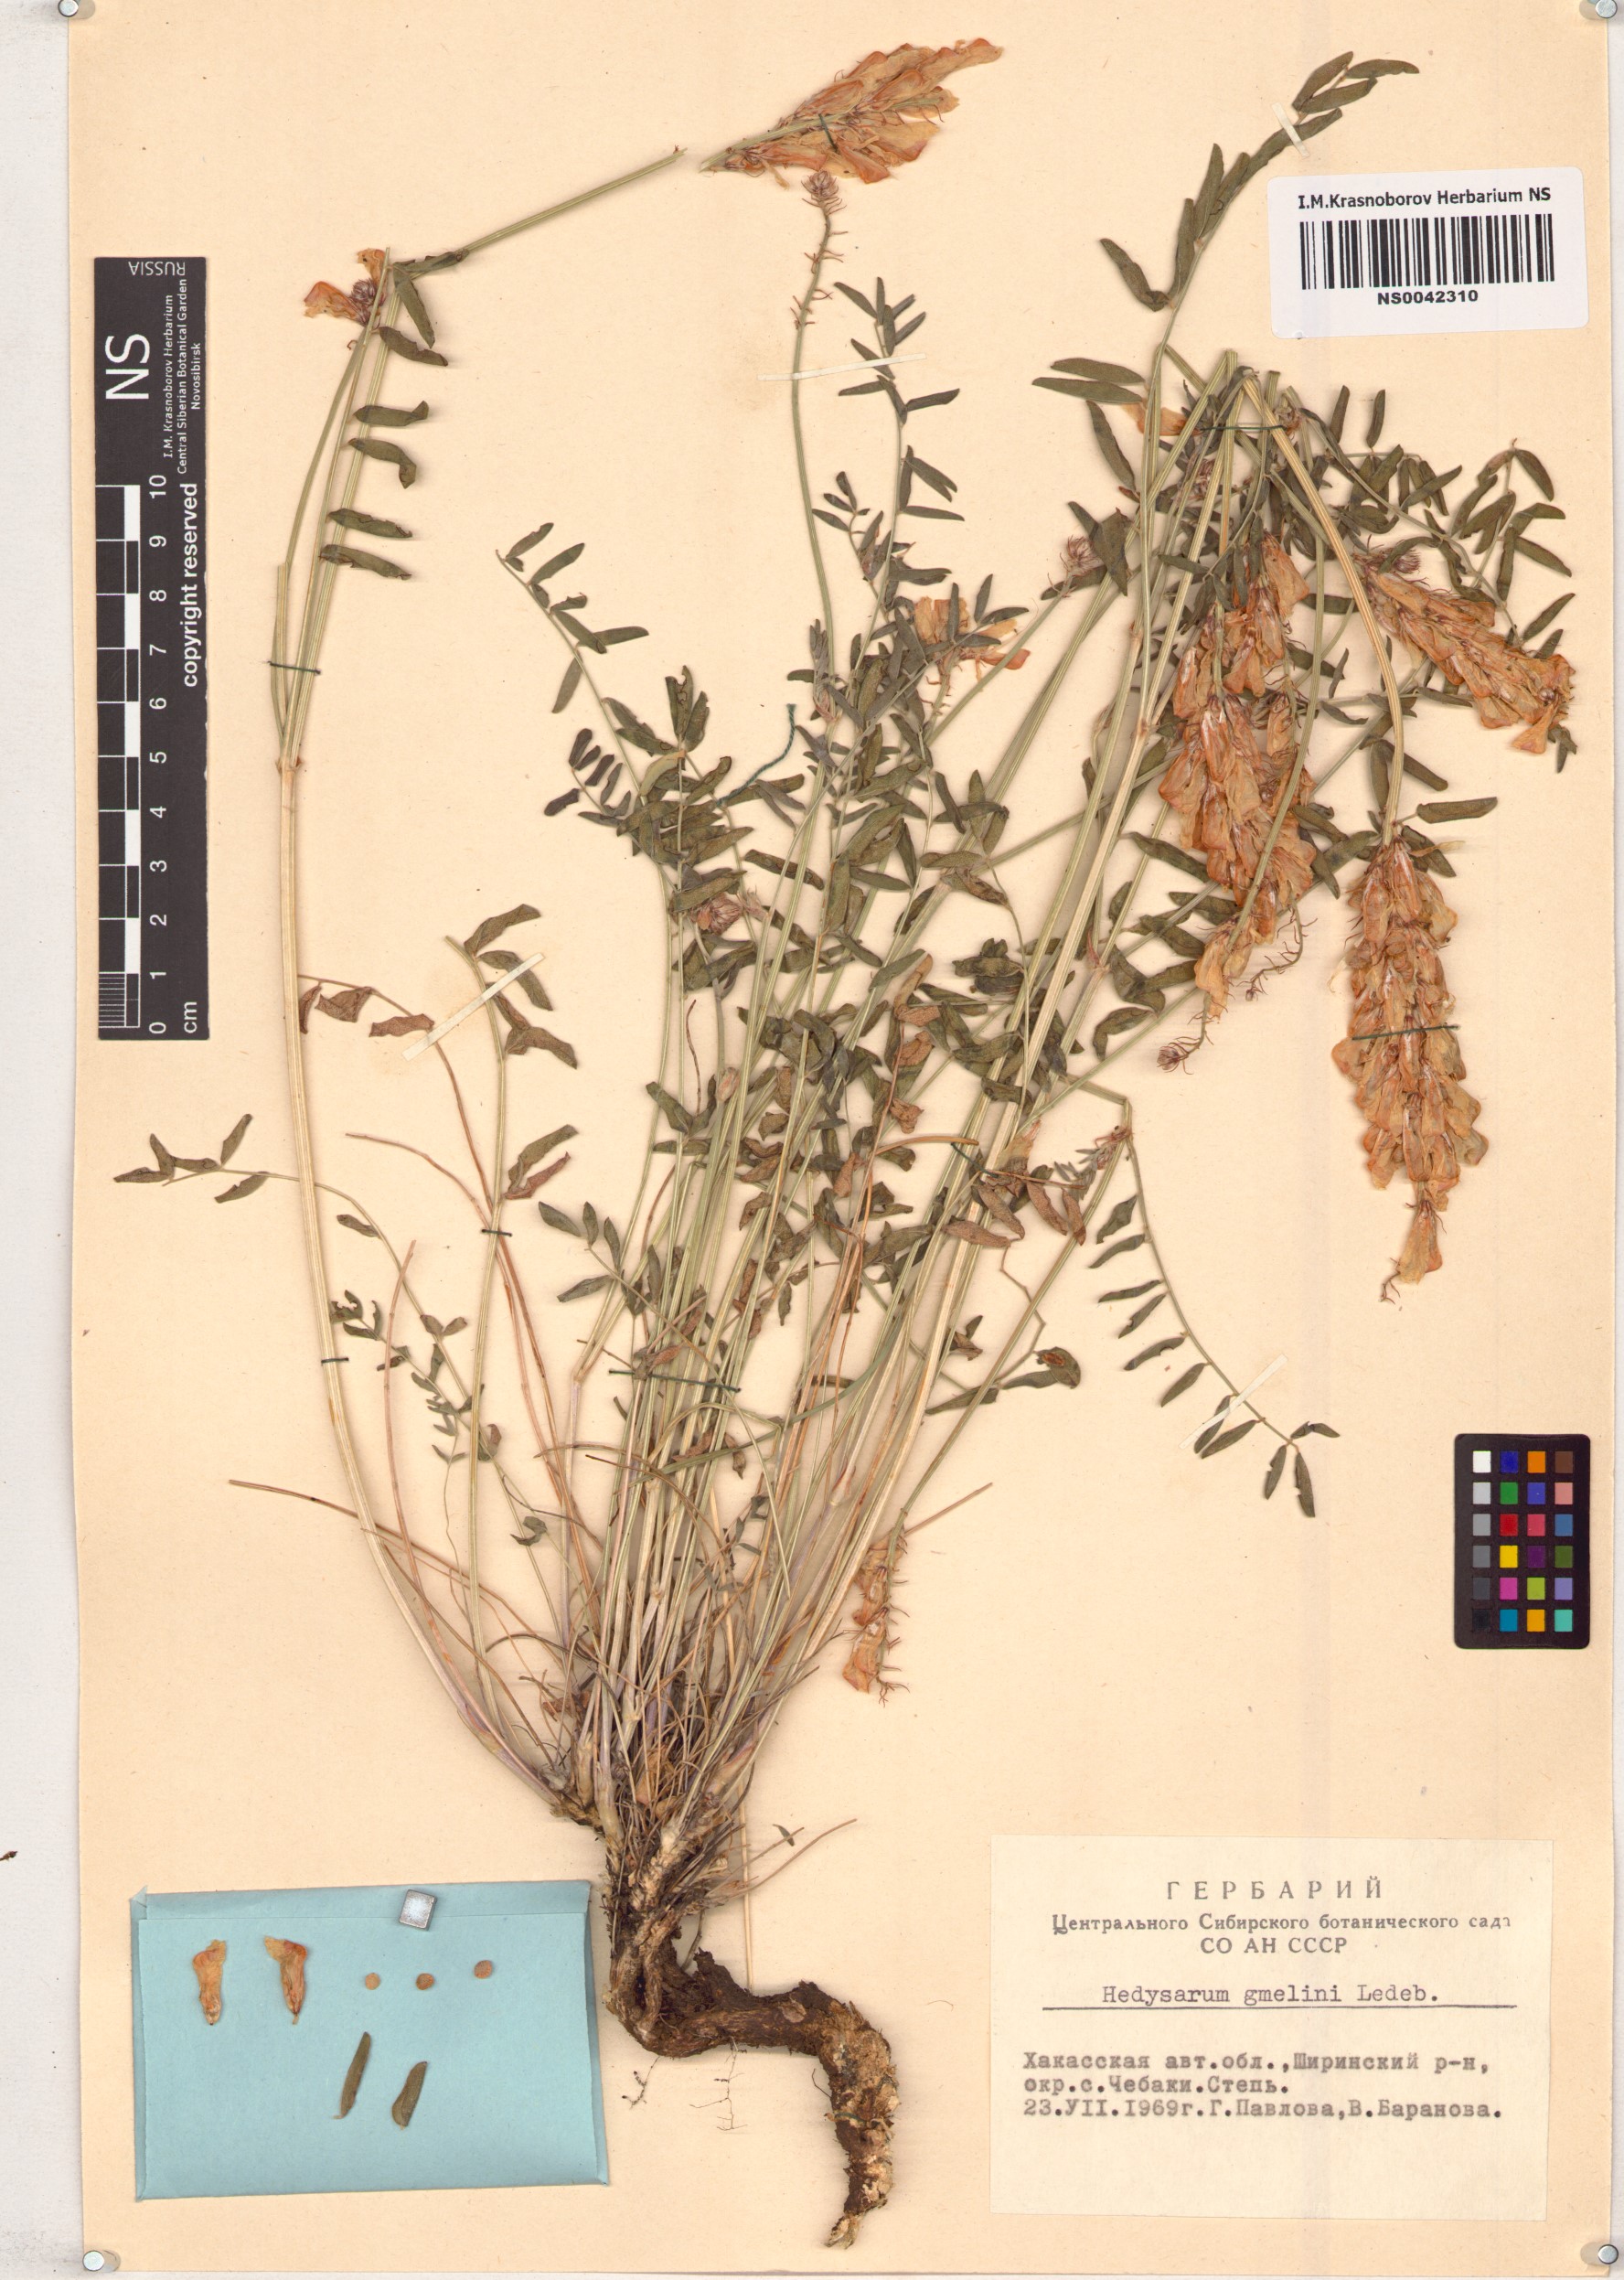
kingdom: Plantae
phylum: Tracheophyta
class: Magnoliopsida
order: Fabales
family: Fabaceae
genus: Hedysarum
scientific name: Hedysarum gmelinii
